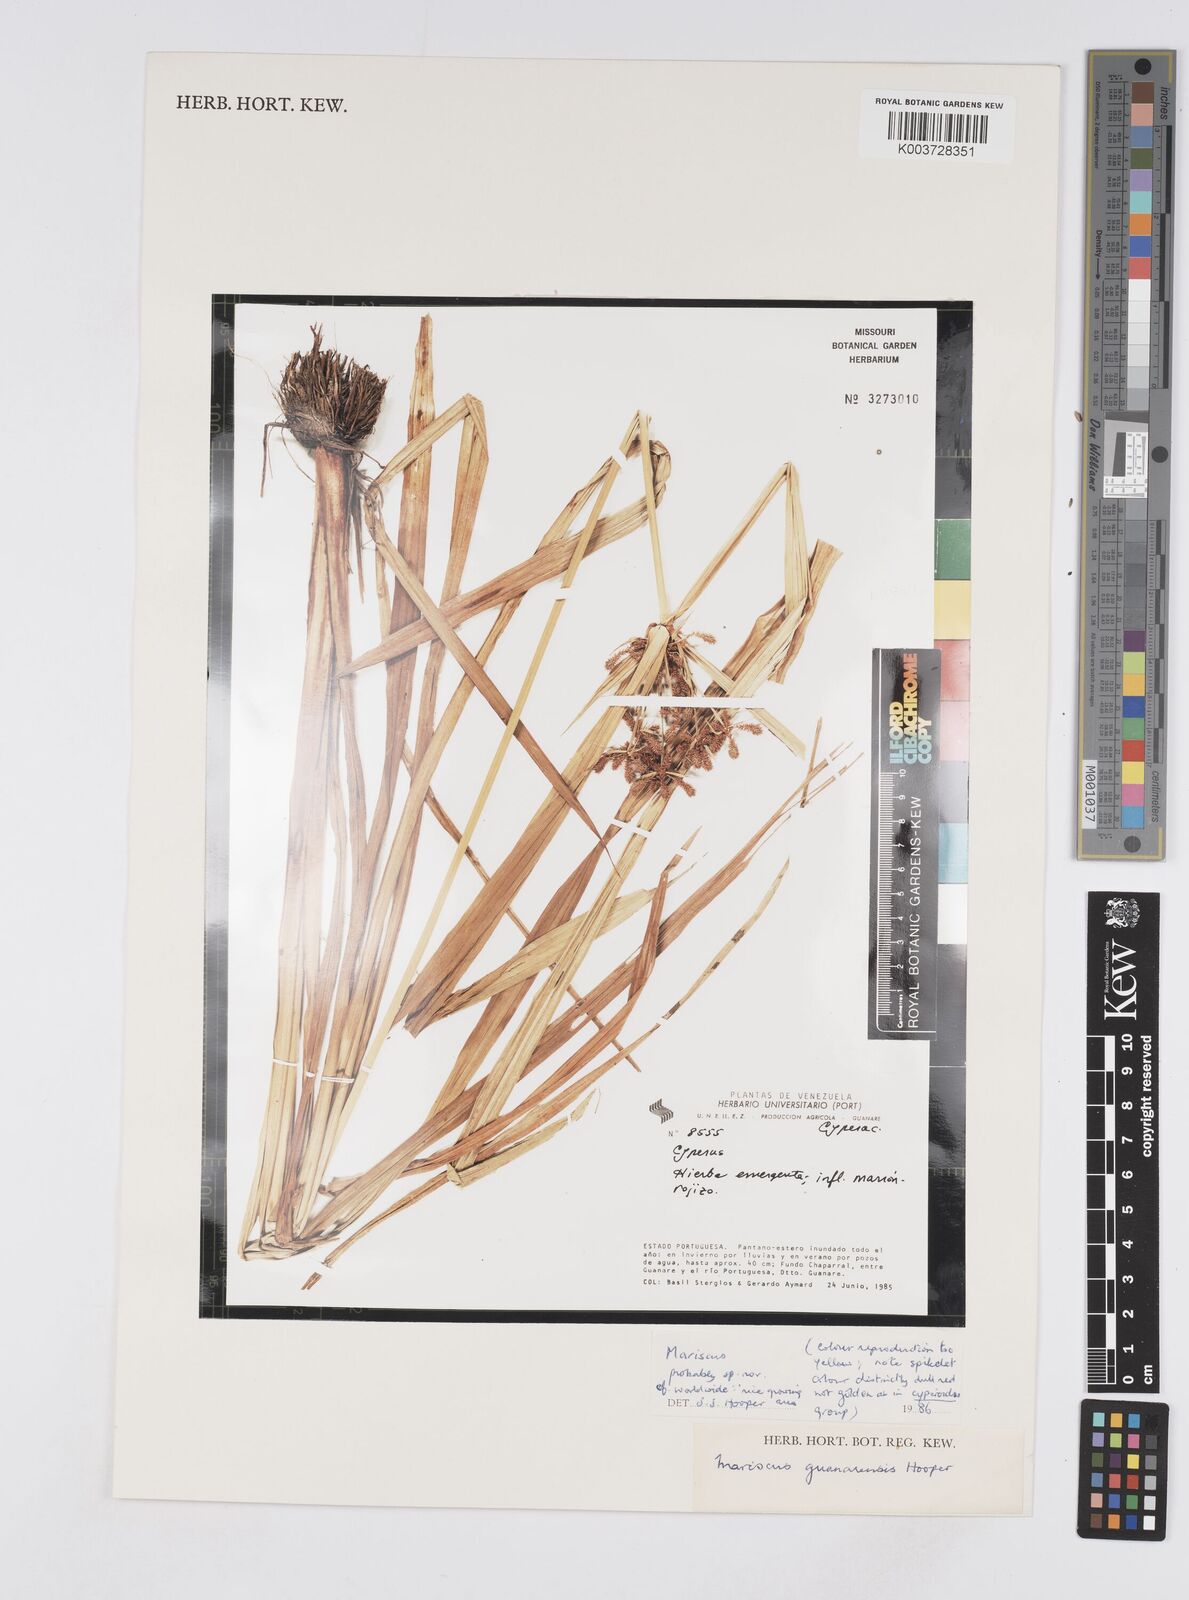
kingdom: Plantae
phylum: Tracheophyta
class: Liliopsida
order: Poales
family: Cyperaceae
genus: Cyperus
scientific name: Cyperus
